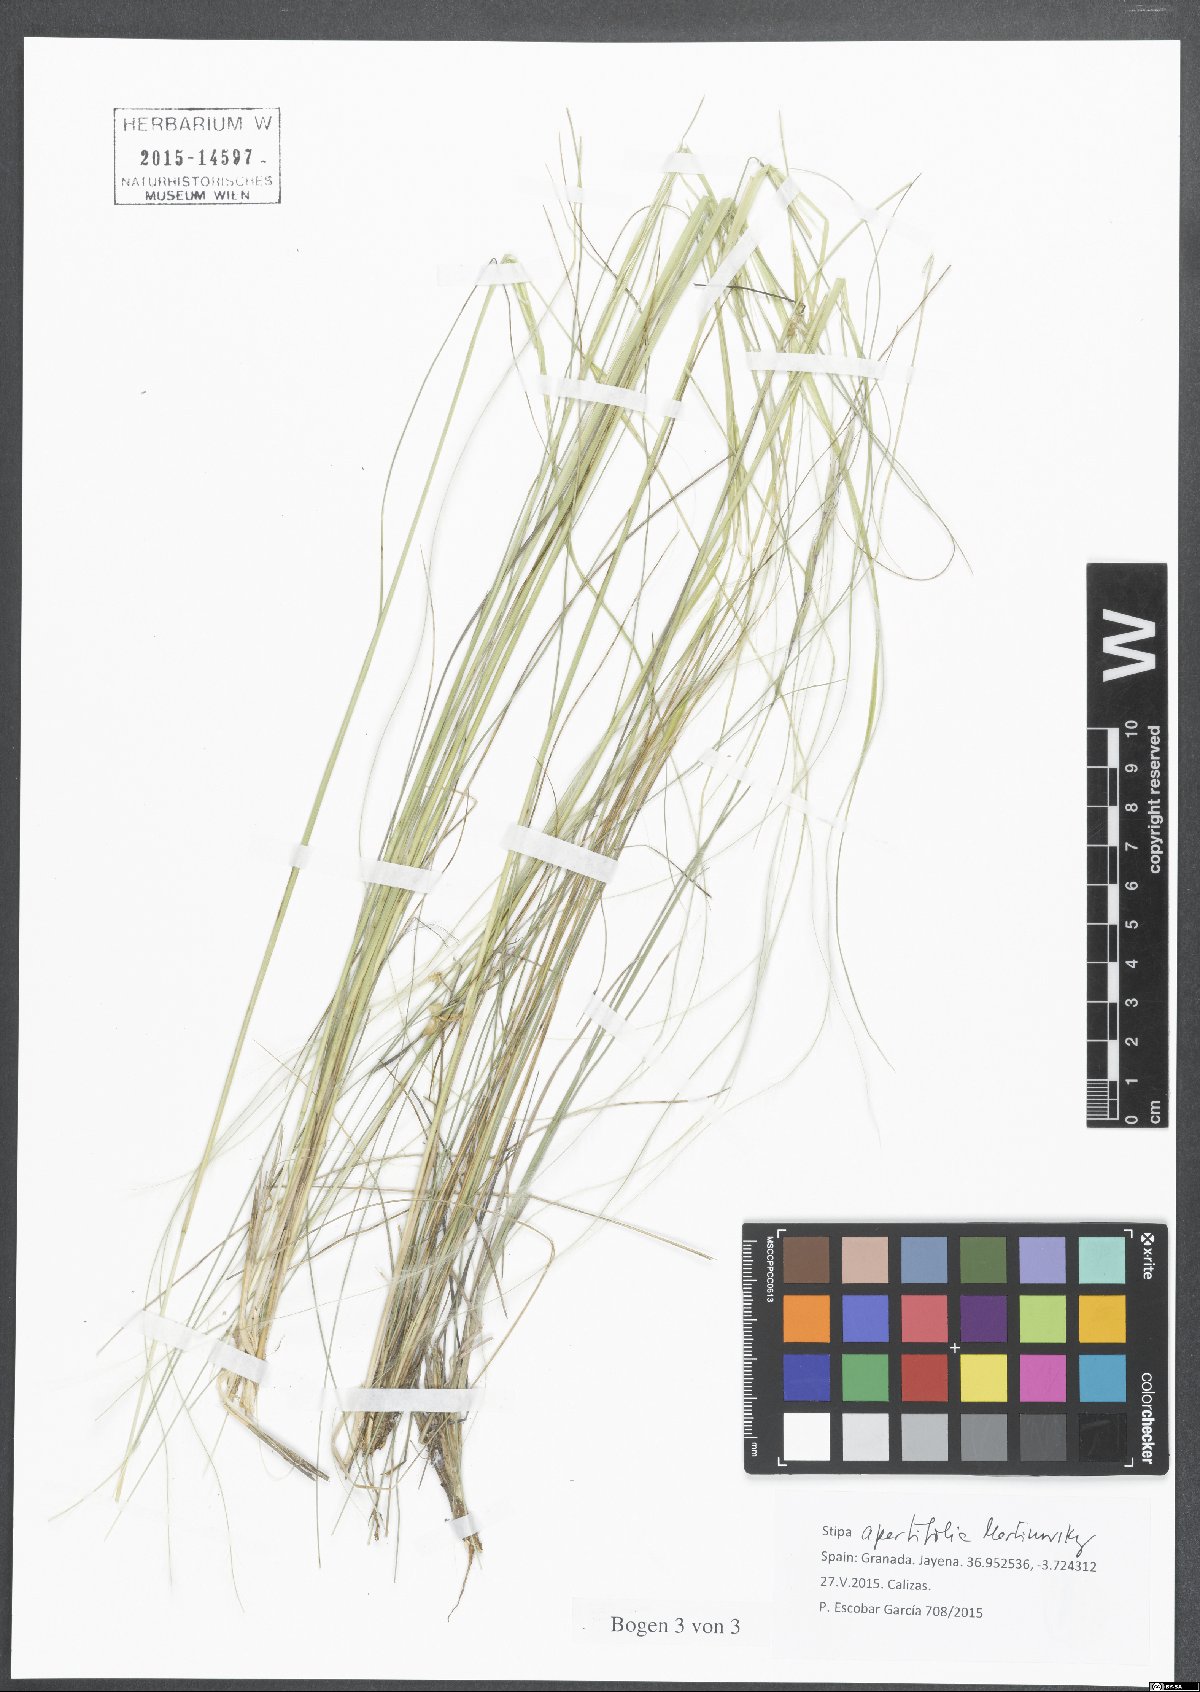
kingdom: Plantae
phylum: Tracheophyta
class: Liliopsida
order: Poales
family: Poaceae
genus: Stipa
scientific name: Stipa apertifolia
